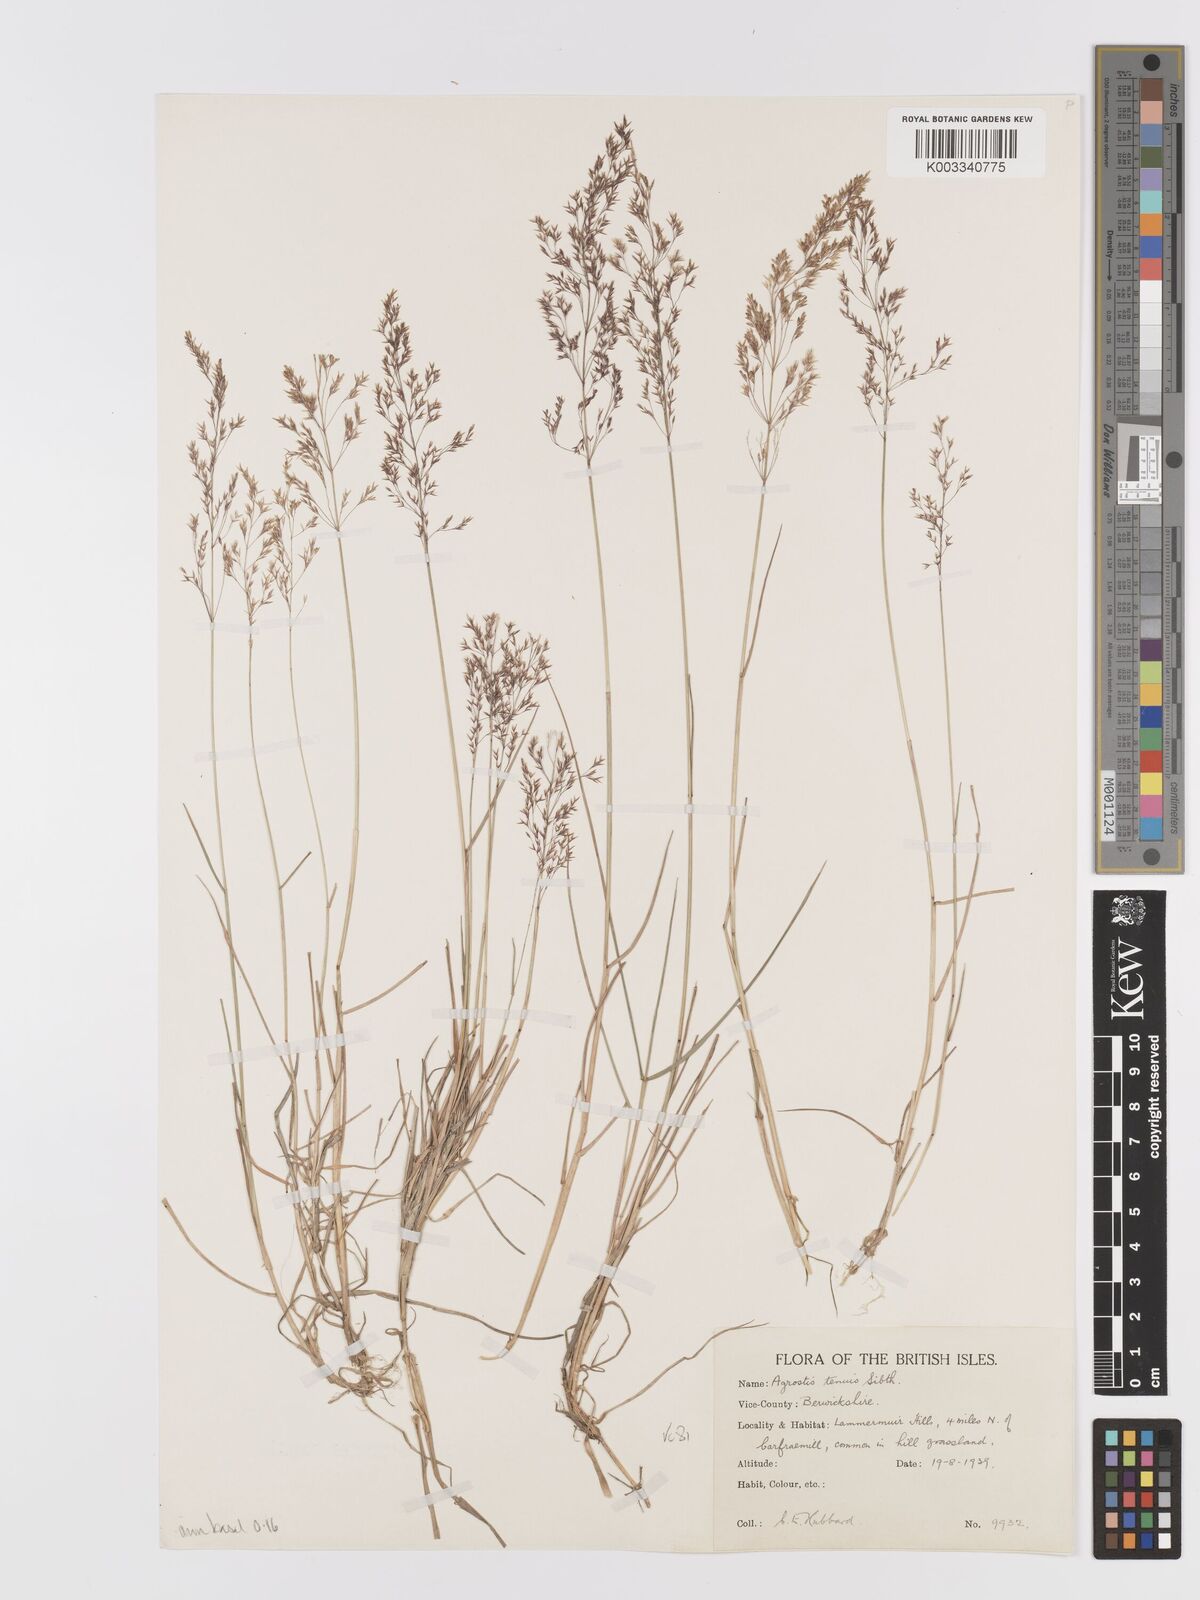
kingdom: Plantae
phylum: Tracheophyta
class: Liliopsida
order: Poales
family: Poaceae
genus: Agrostis
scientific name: Agrostis capillaris
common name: Colonial bentgrass
